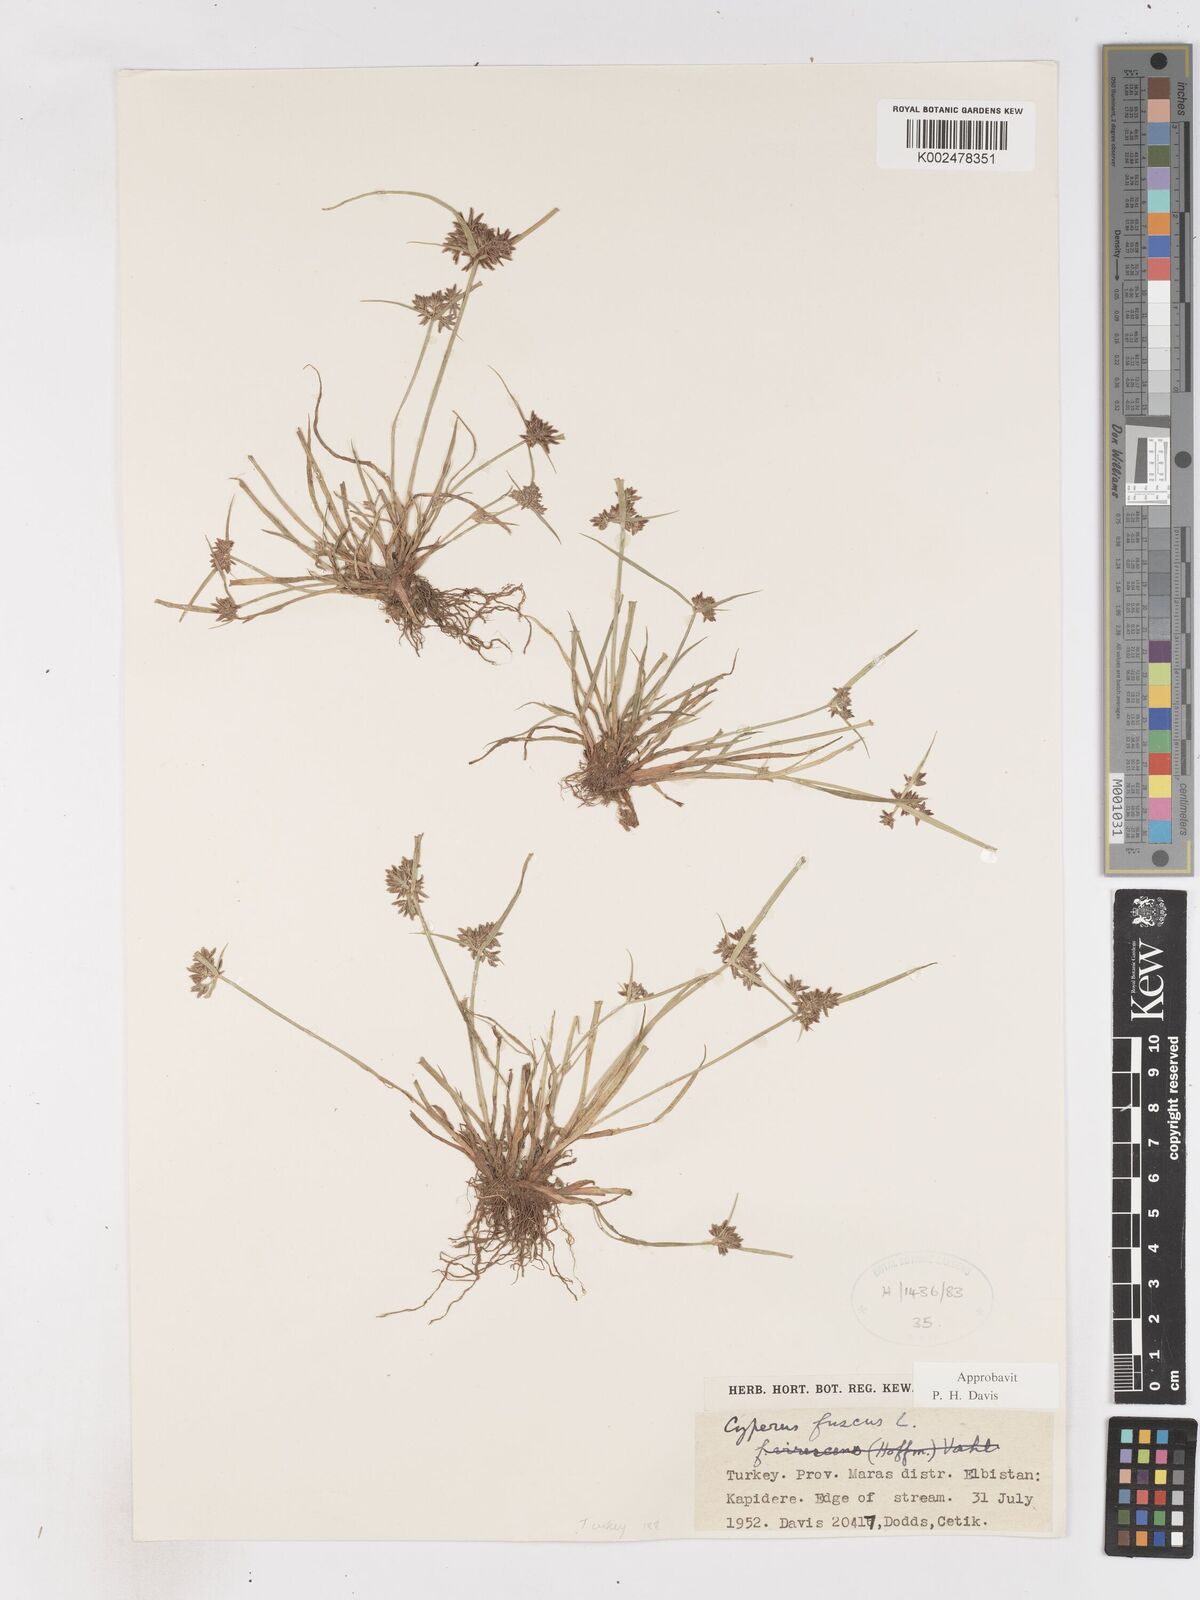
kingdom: Plantae
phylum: Tracheophyta
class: Liliopsida
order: Poales
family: Cyperaceae
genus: Cyperus
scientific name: Cyperus fuscus
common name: Brown galingale
